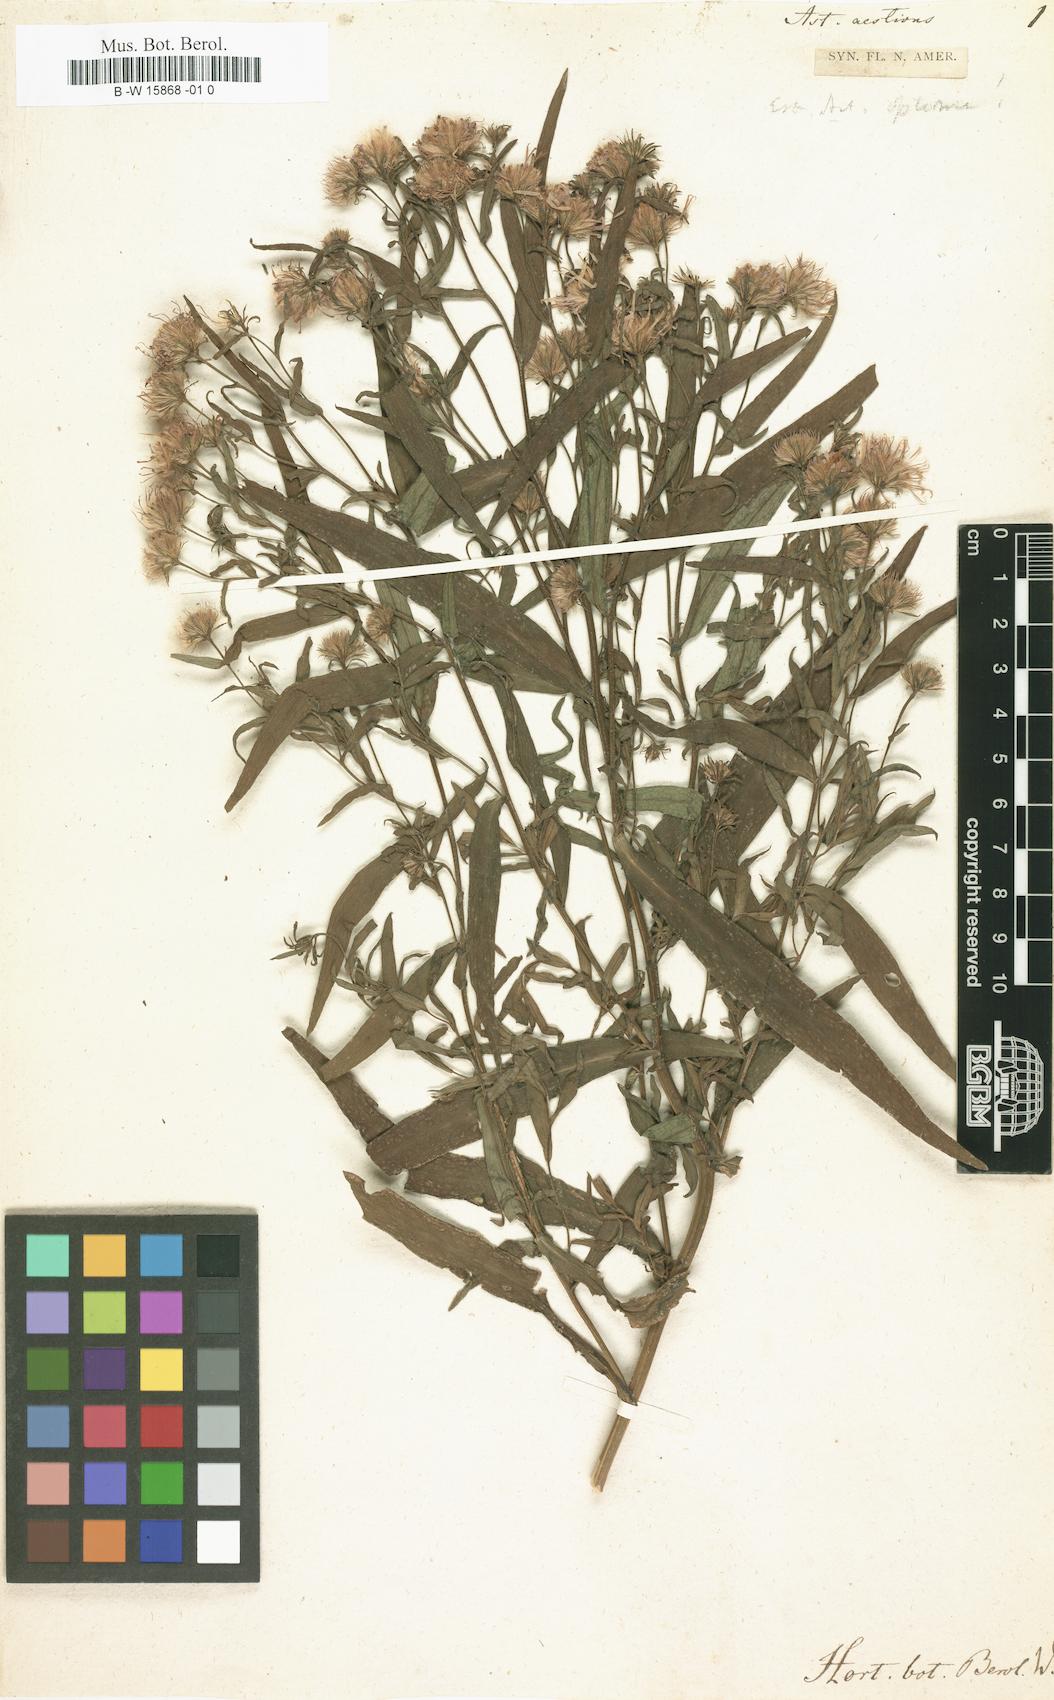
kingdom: Plantae
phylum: Tracheophyta
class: Magnoliopsida
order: Asterales
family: Asteraceae
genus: Aster
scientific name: Aster aestivus
